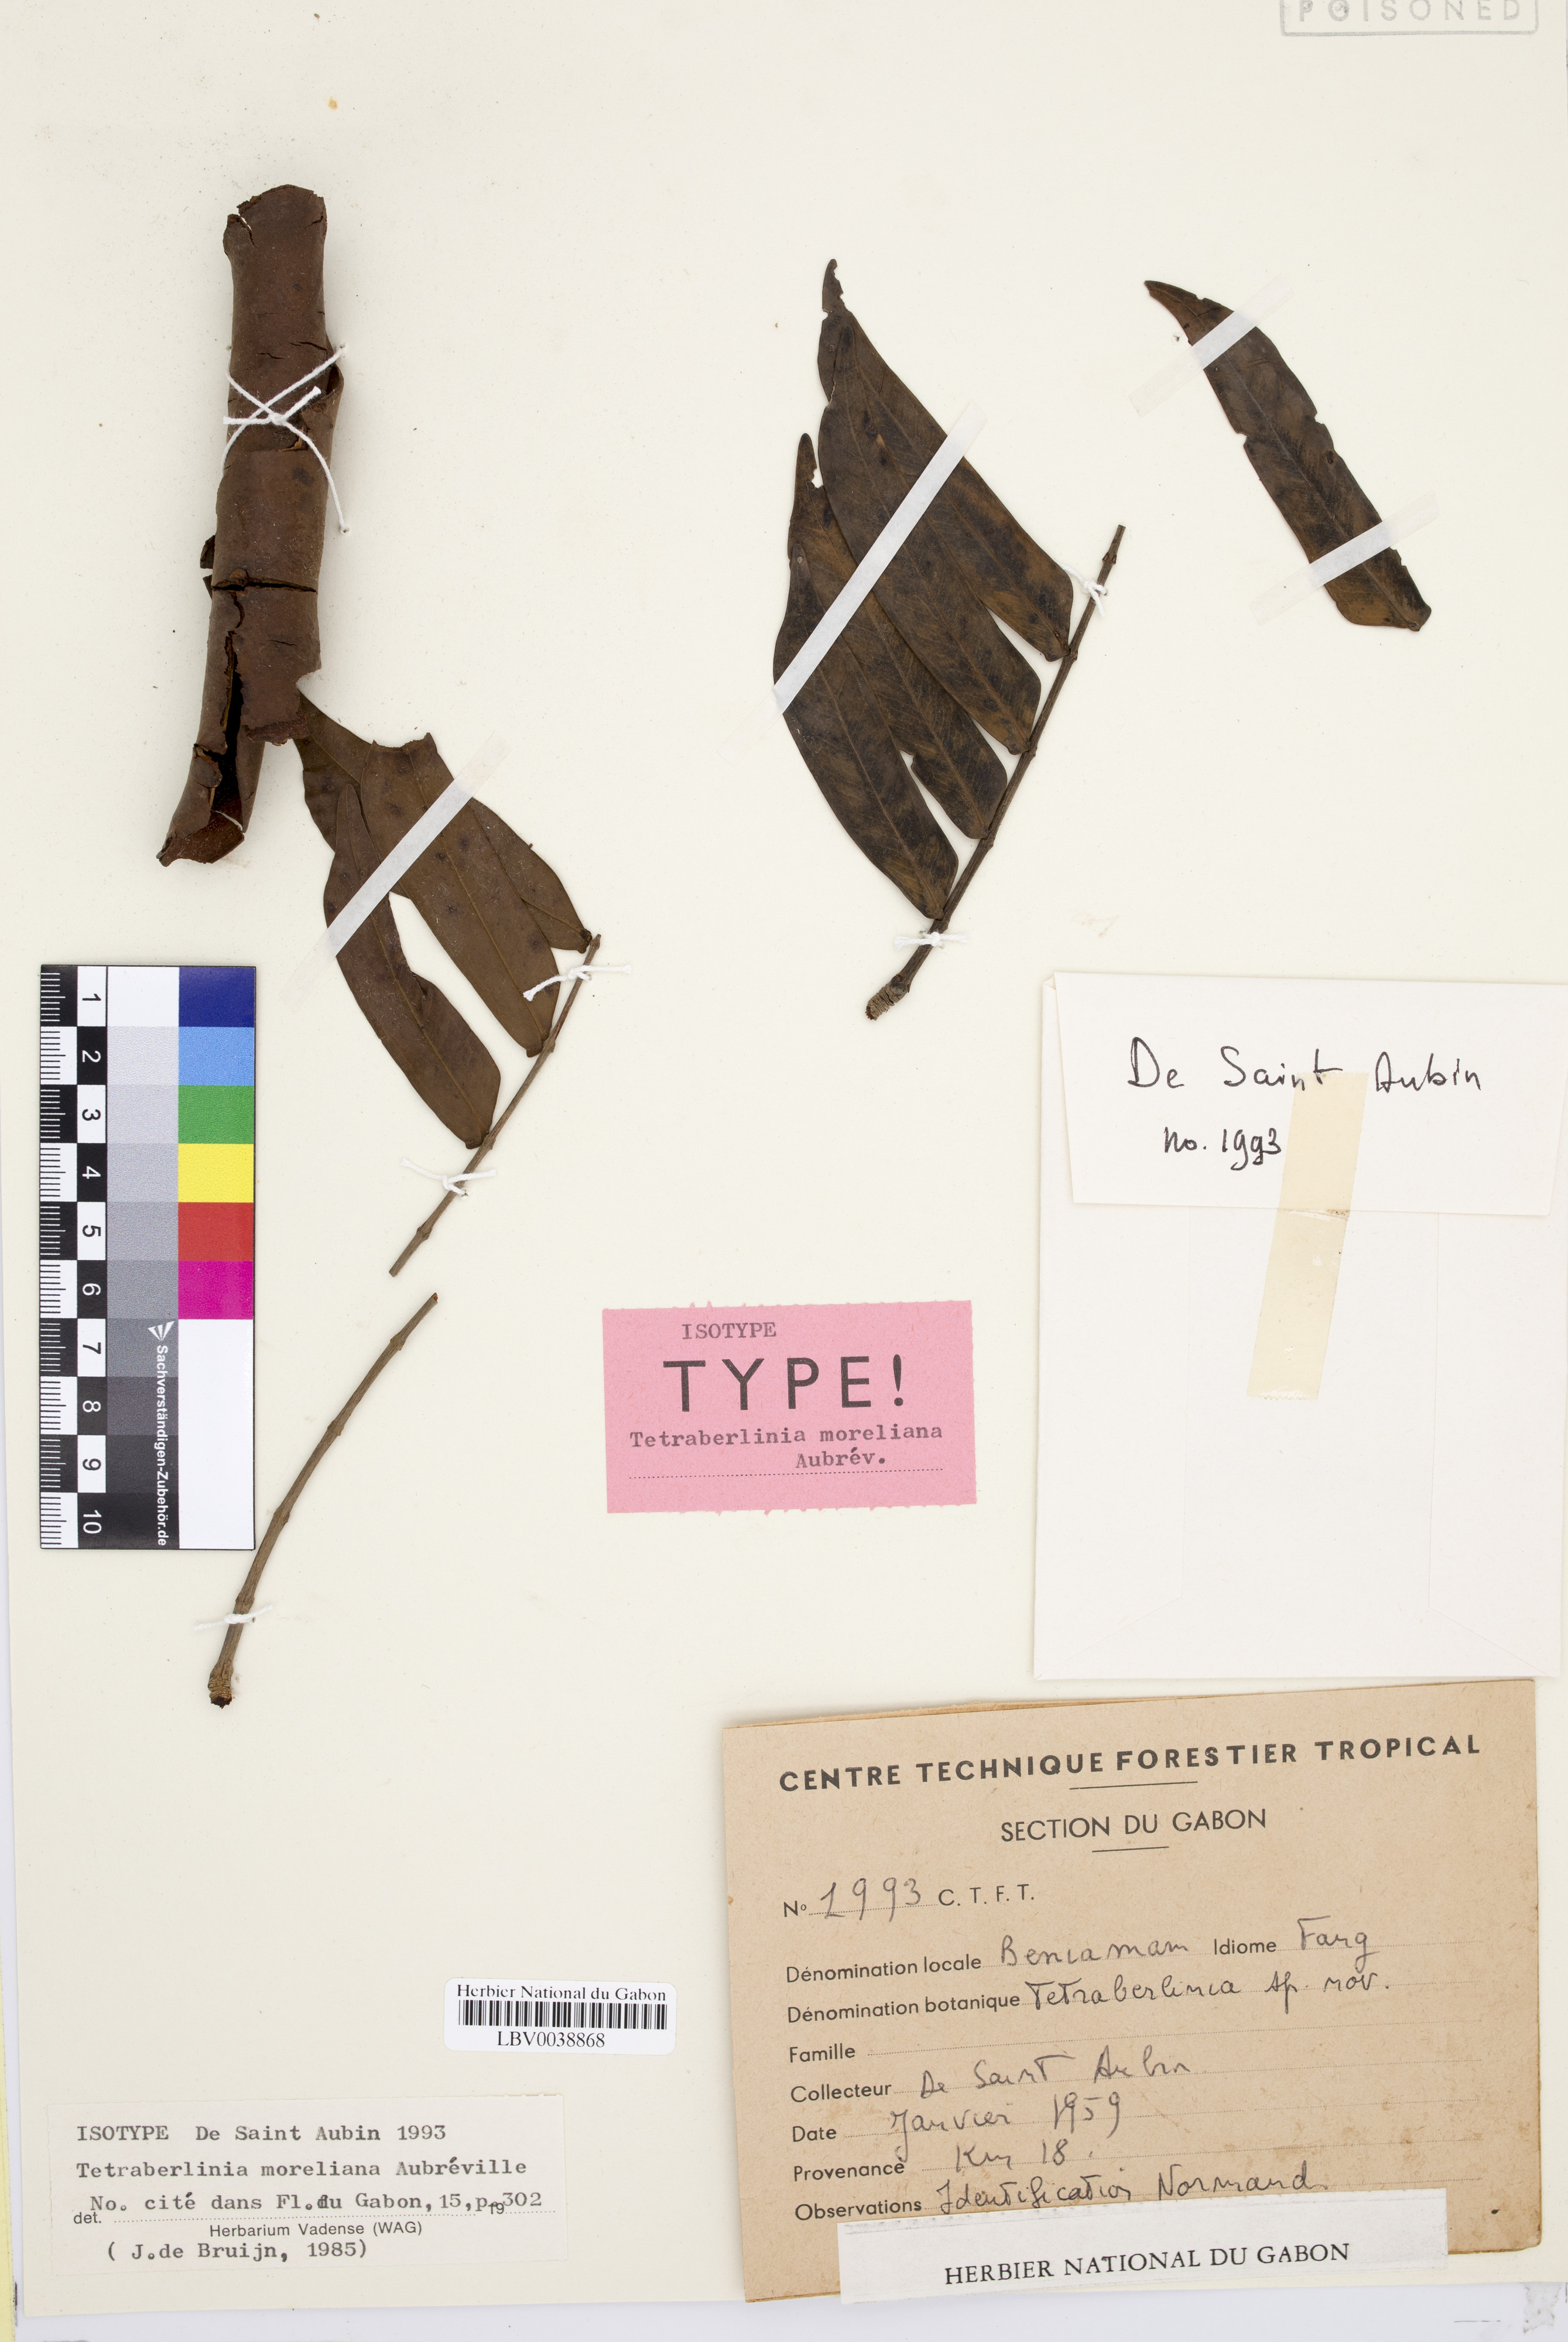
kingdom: Plantae
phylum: Tracheophyta
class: Magnoliopsida
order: Fabales
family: Fabaceae
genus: Sindora
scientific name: Sindora klaineana
